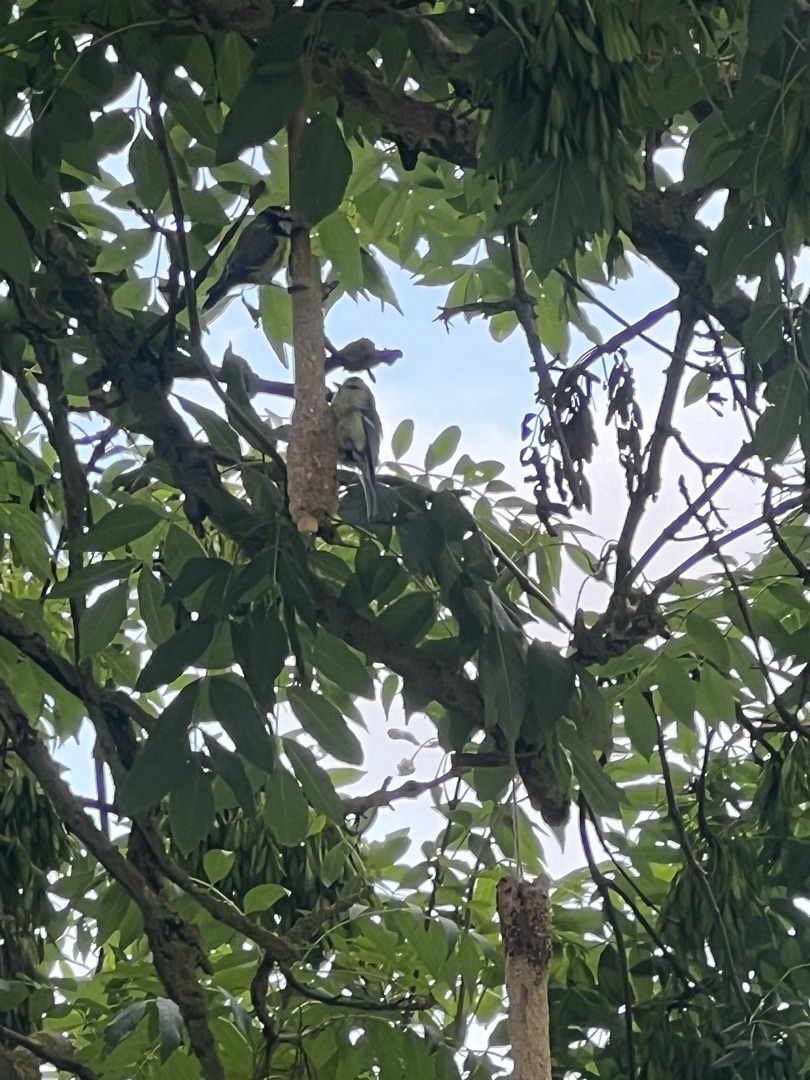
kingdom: Animalia
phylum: Chordata
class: Aves
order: Passeriformes
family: Paridae
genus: Cyanistes
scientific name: Cyanistes caeruleus
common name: Blåmejse
